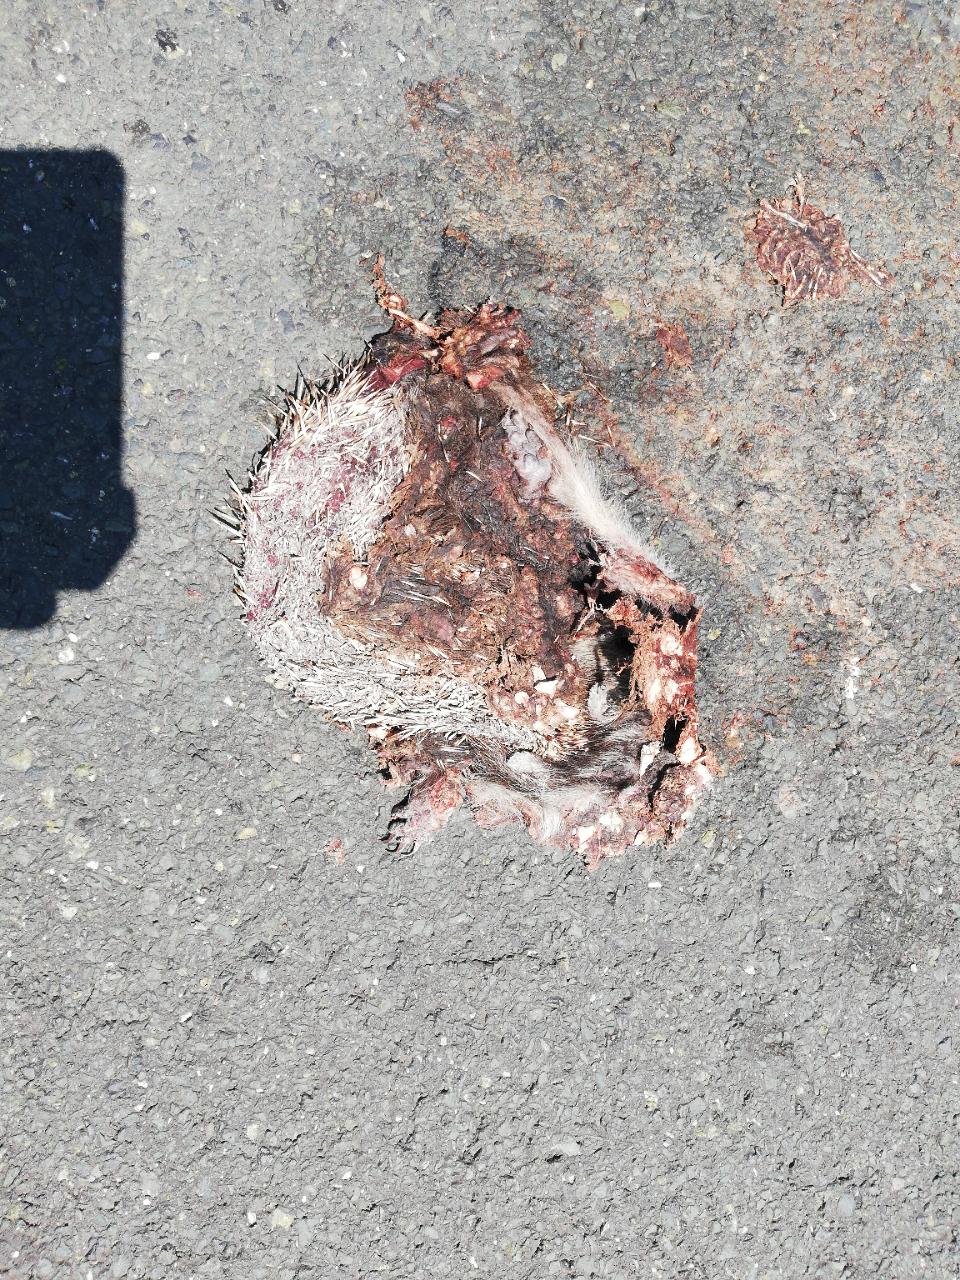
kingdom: Animalia
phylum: Chordata
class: Mammalia
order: Erinaceomorpha
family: Erinaceidae
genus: Erinaceus
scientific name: Erinaceus
